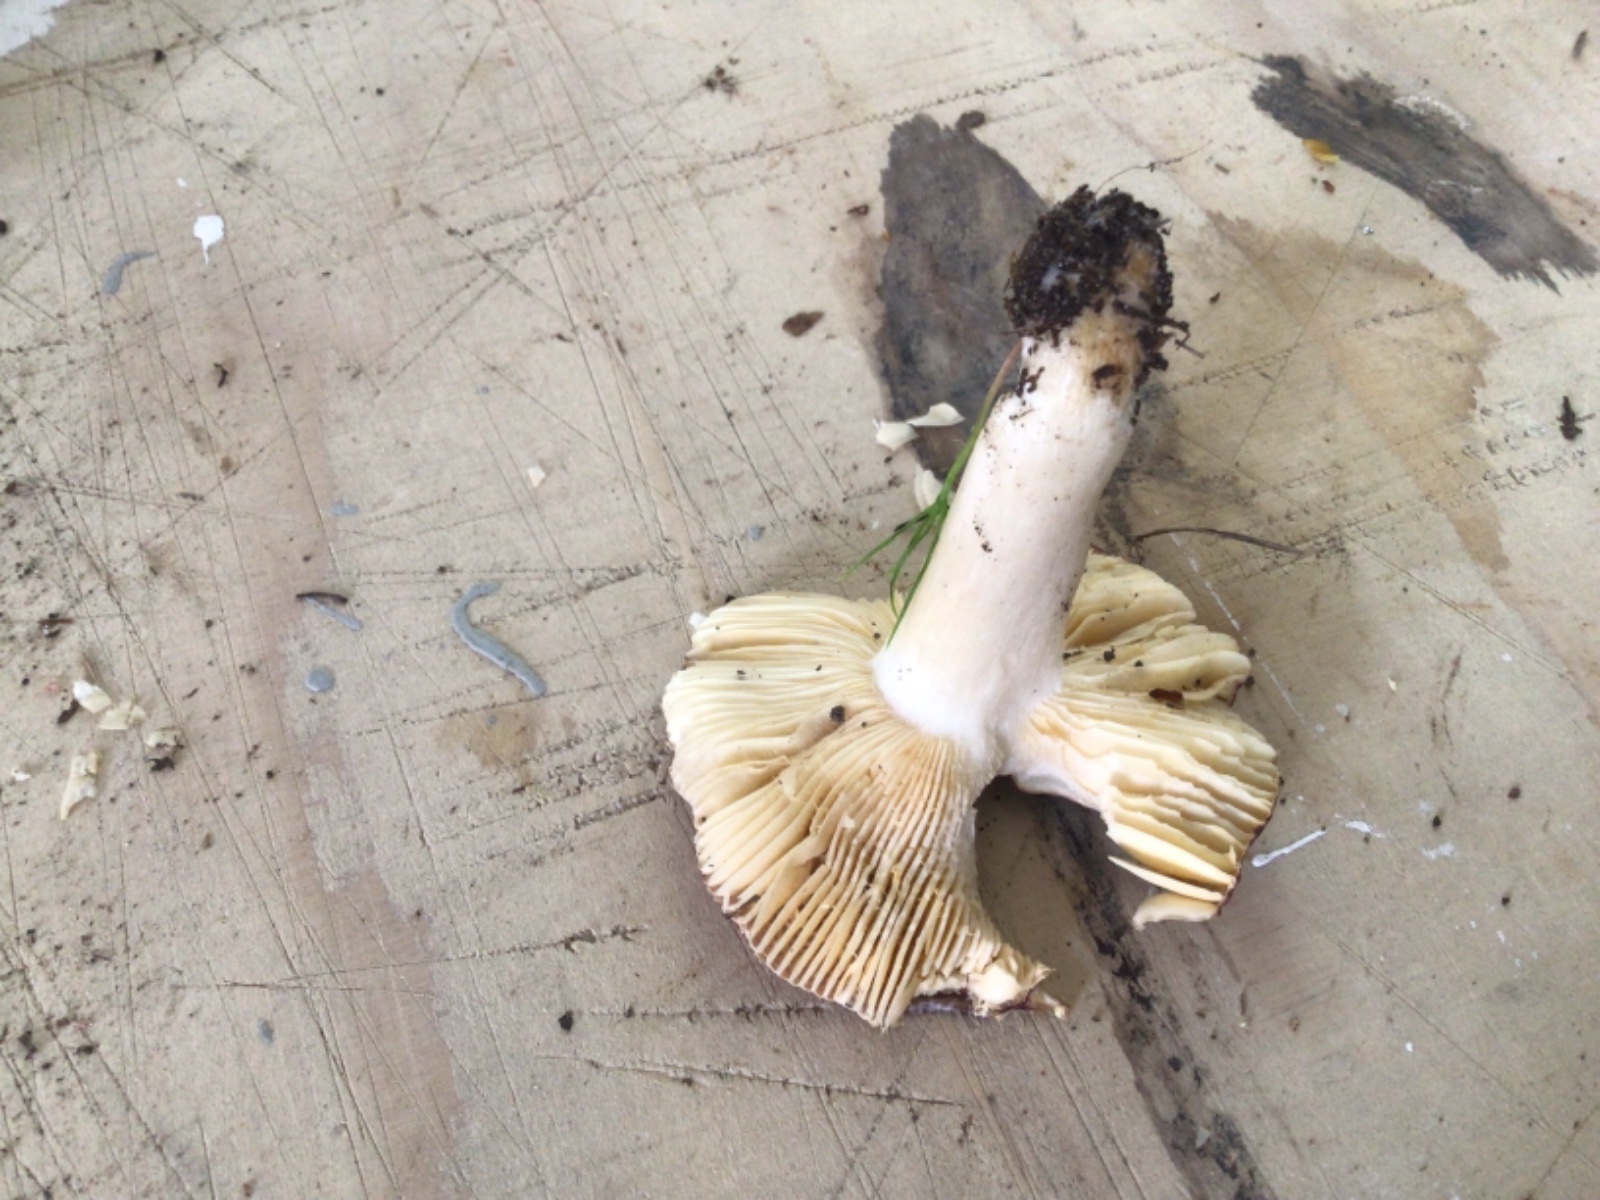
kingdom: Fungi
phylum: Basidiomycota
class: Agaricomycetes
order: Russulales
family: Russulaceae
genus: Russula
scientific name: Russula
